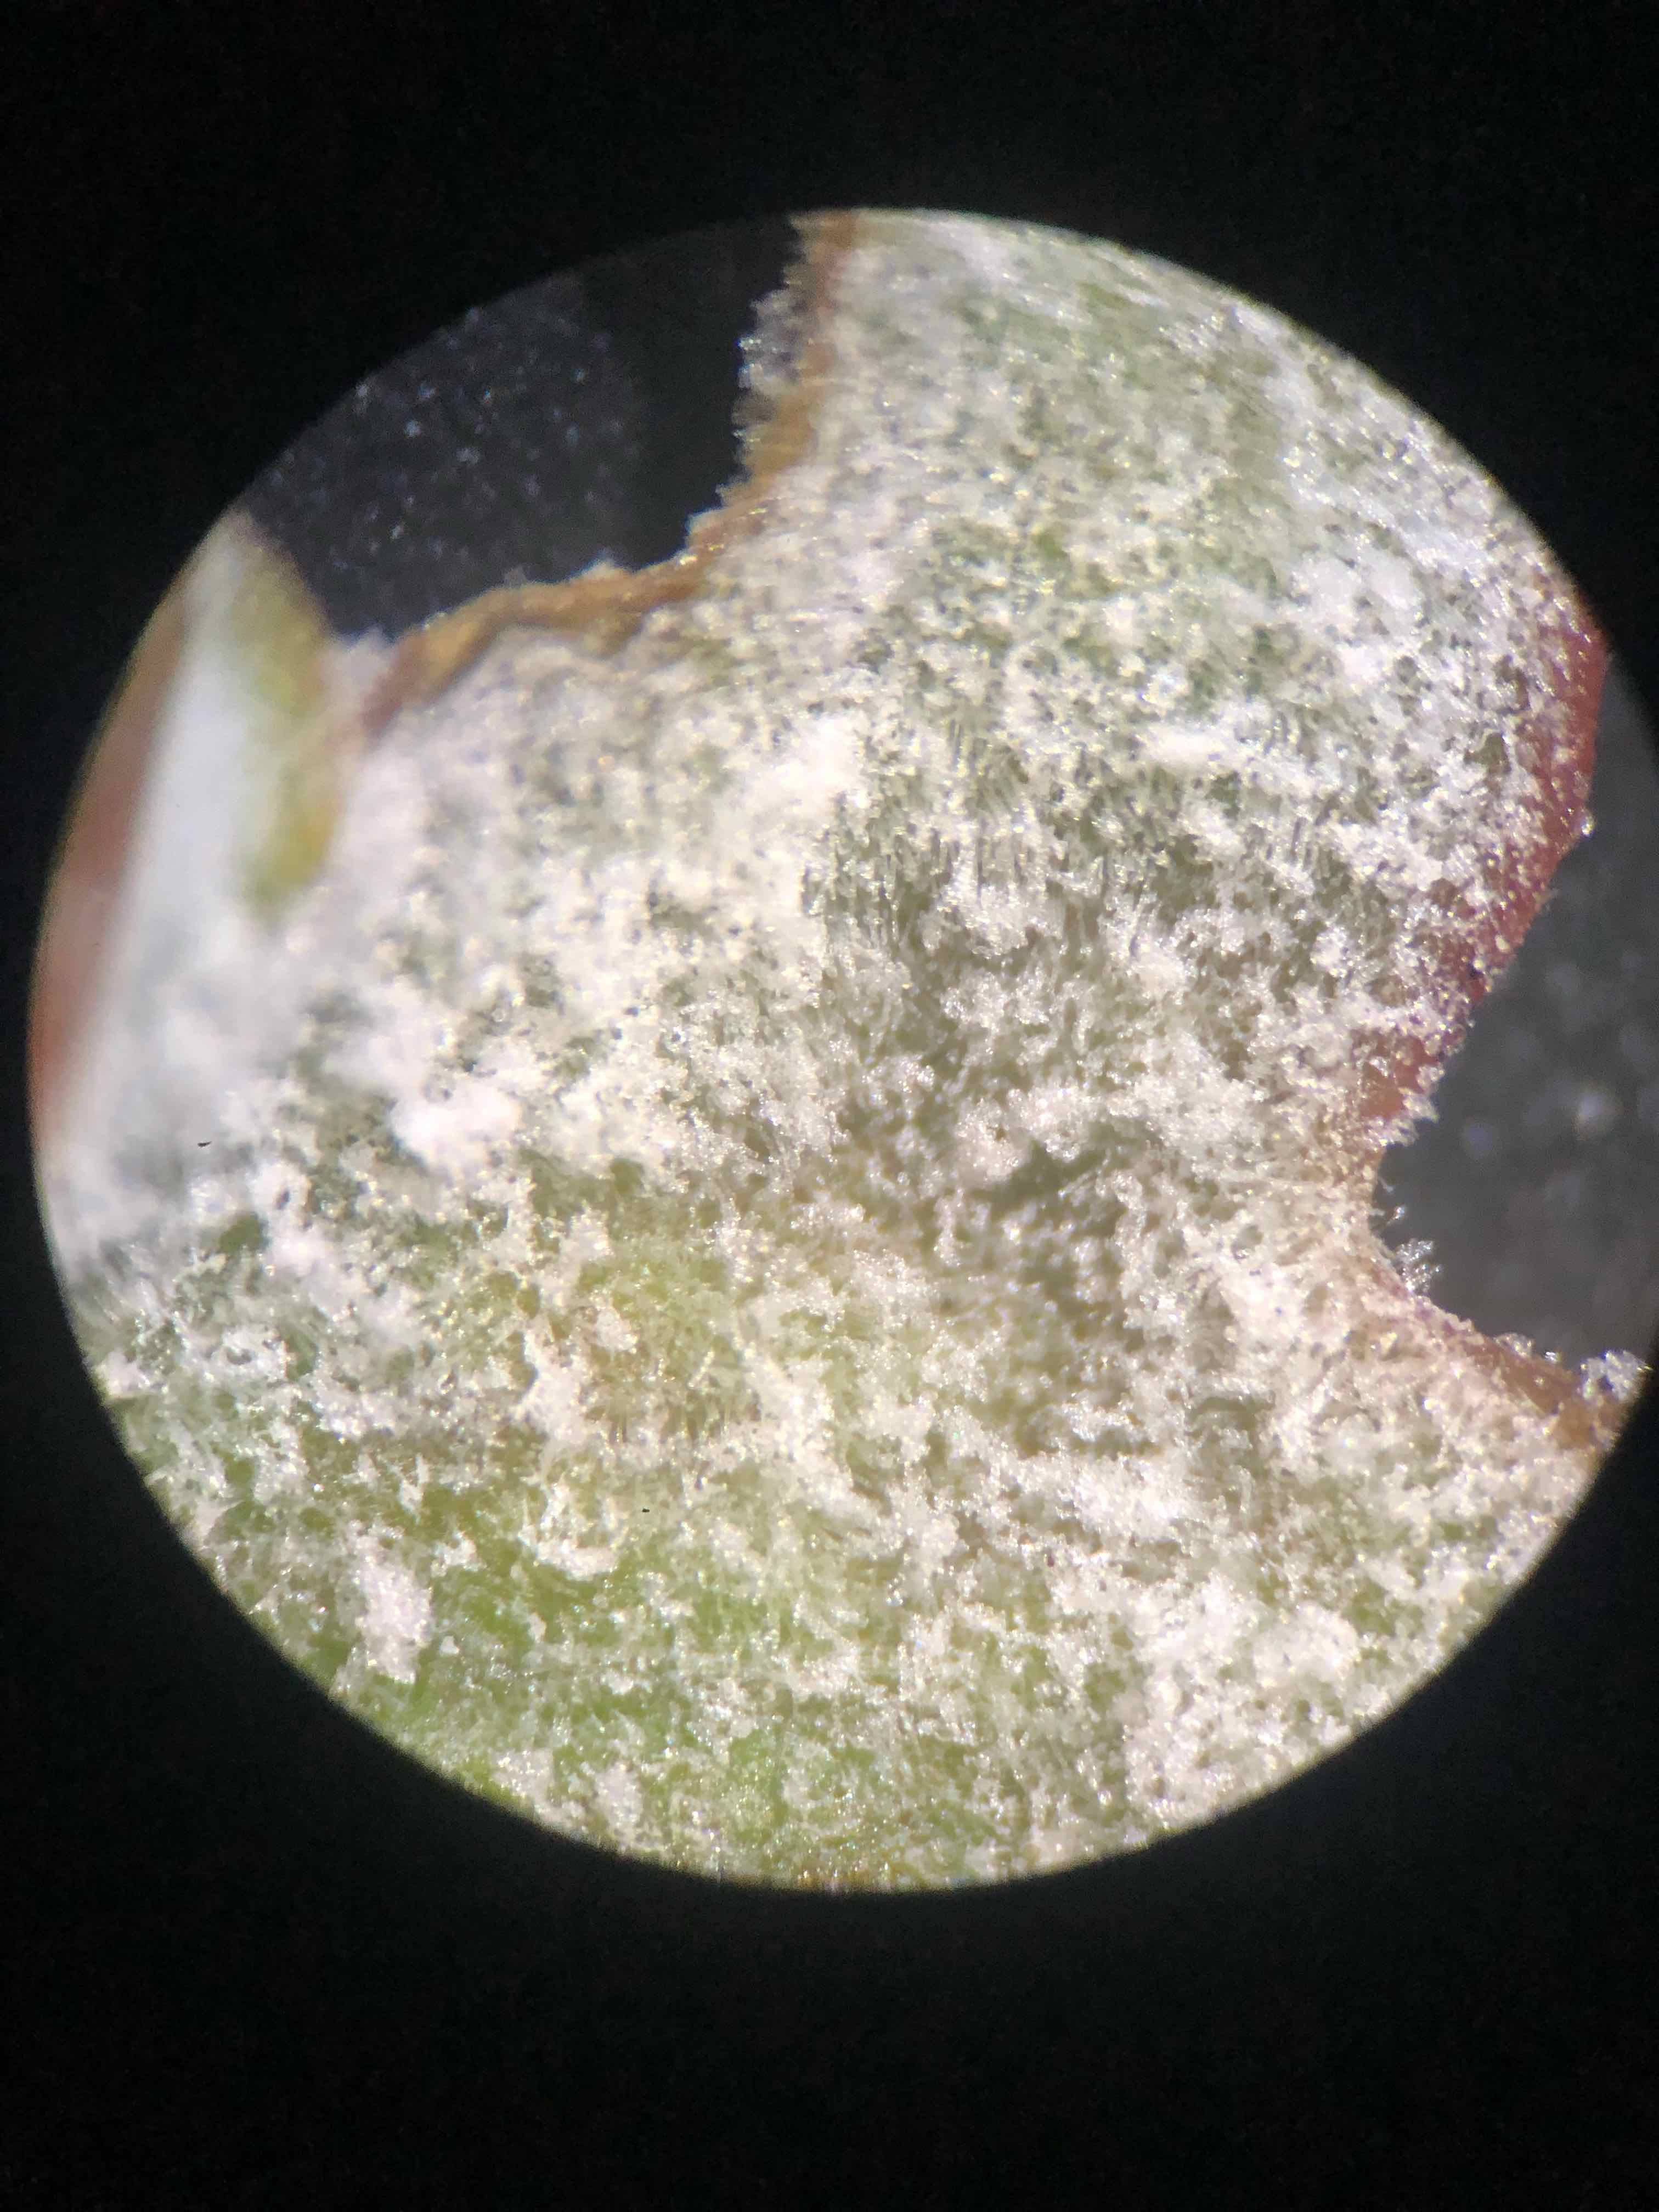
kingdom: Fungi
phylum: Ascomycota
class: Leotiomycetes
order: Helotiales
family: Erysiphaceae
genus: Sawadaea
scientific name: Sawadaea bicornis
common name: Maple mildew
